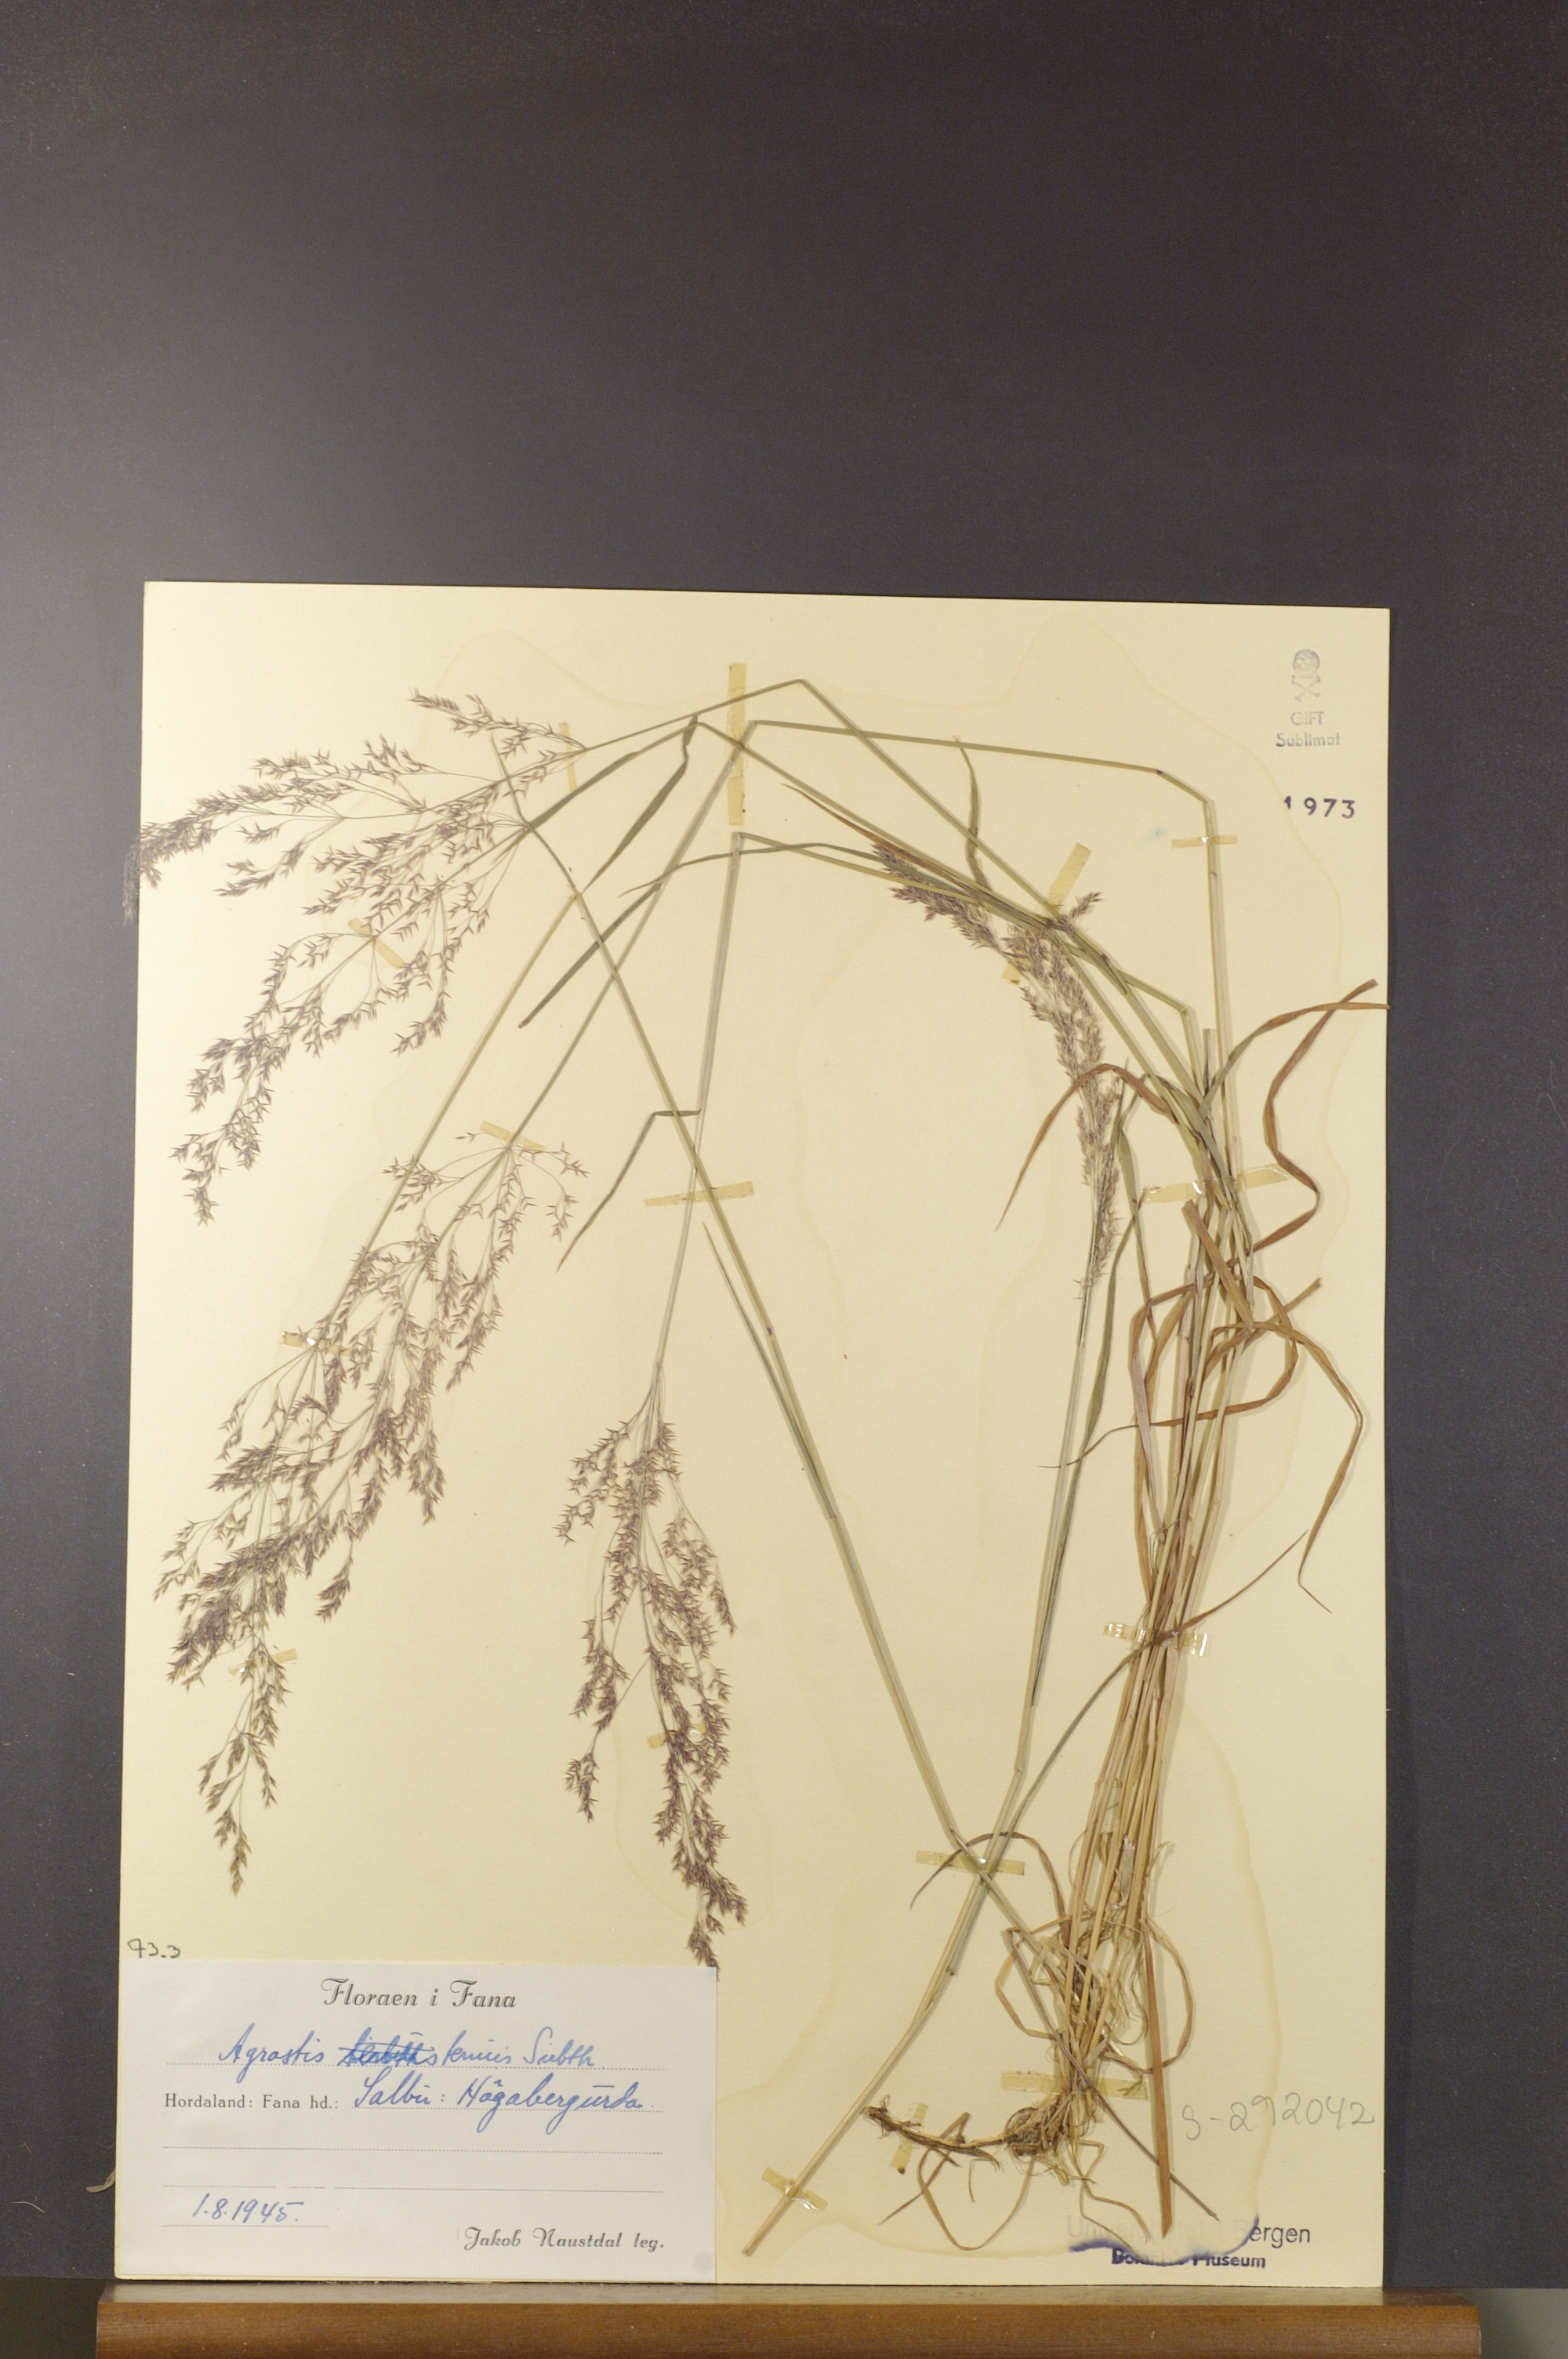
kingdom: Plantae
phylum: Tracheophyta
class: Liliopsida
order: Poales
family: Poaceae
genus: Agrostis
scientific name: Agrostis capillaris
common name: Colonial bentgrass
